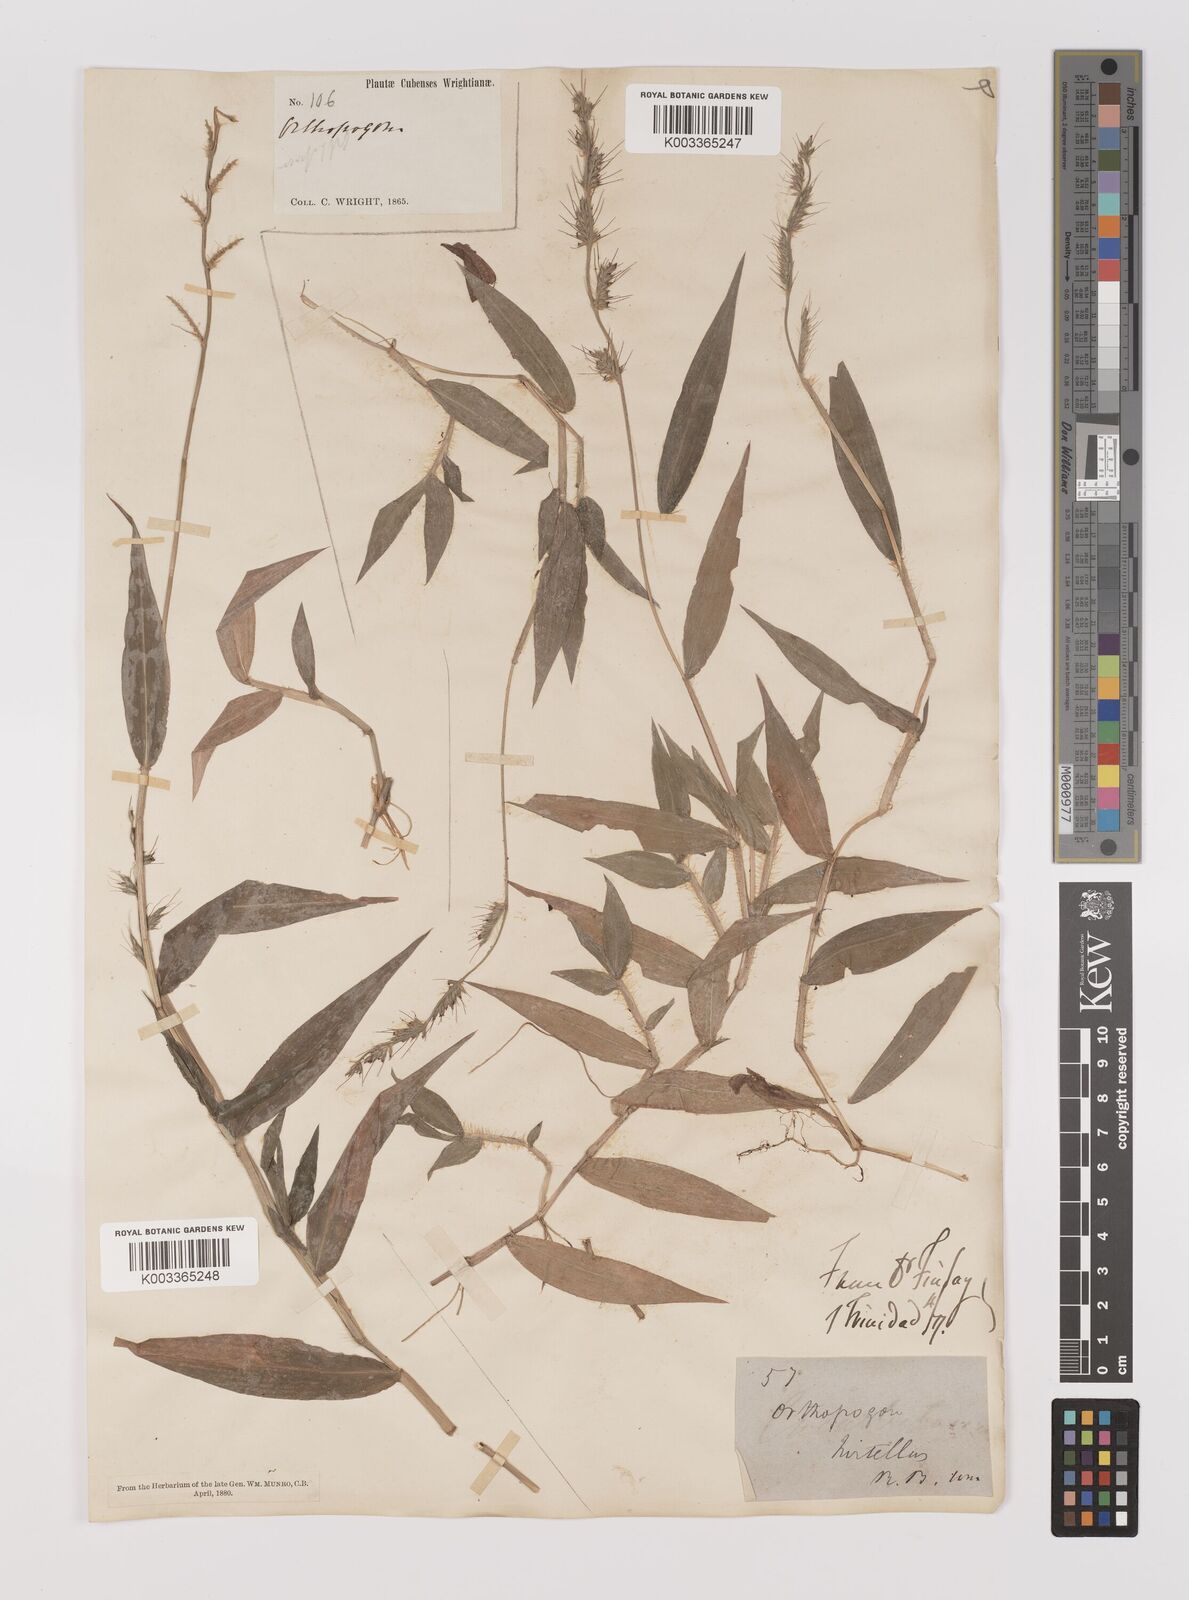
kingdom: Plantae
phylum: Tracheophyta
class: Liliopsida
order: Poales
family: Poaceae
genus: Oplismenus
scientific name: Oplismenus hirtellus
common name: Basketgrass
